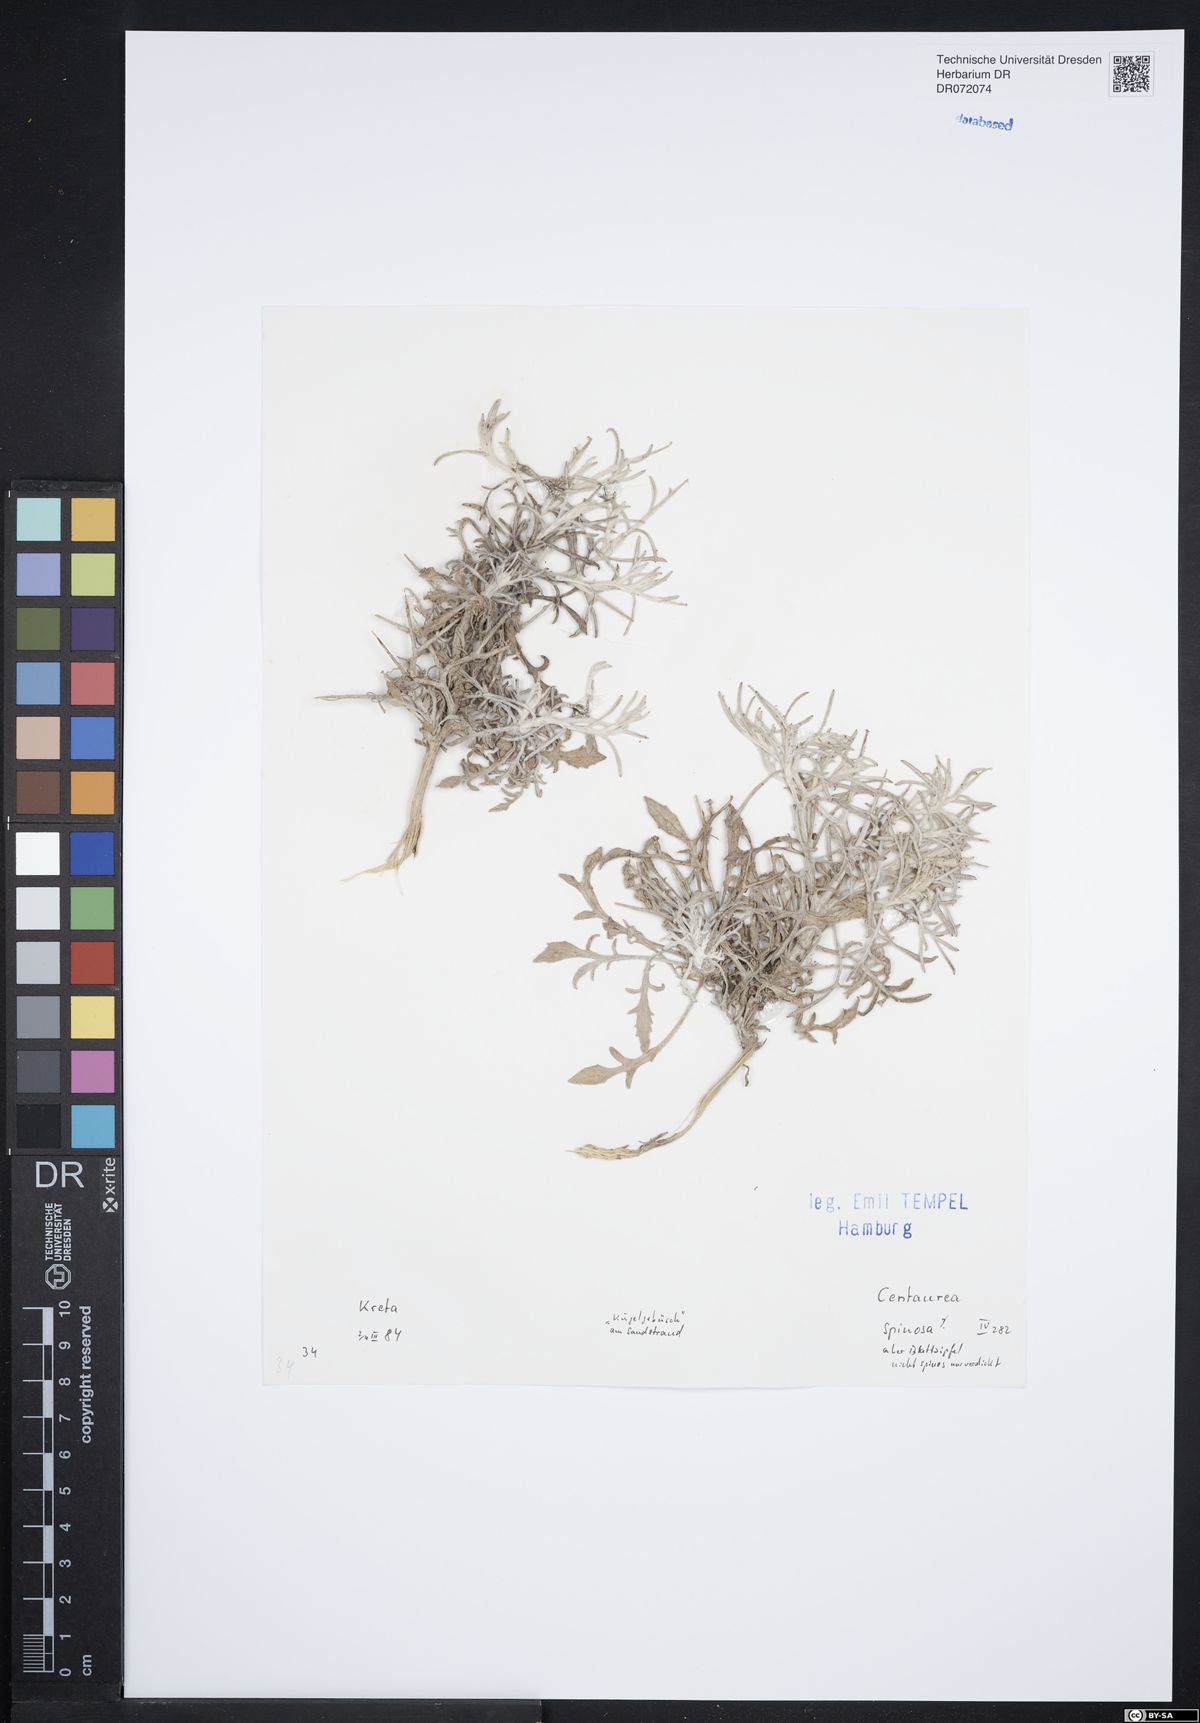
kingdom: Plantae
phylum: Tracheophyta
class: Magnoliopsida
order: Asterales
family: Asteraceae
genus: Centaurea
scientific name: Centaurea spinosa
